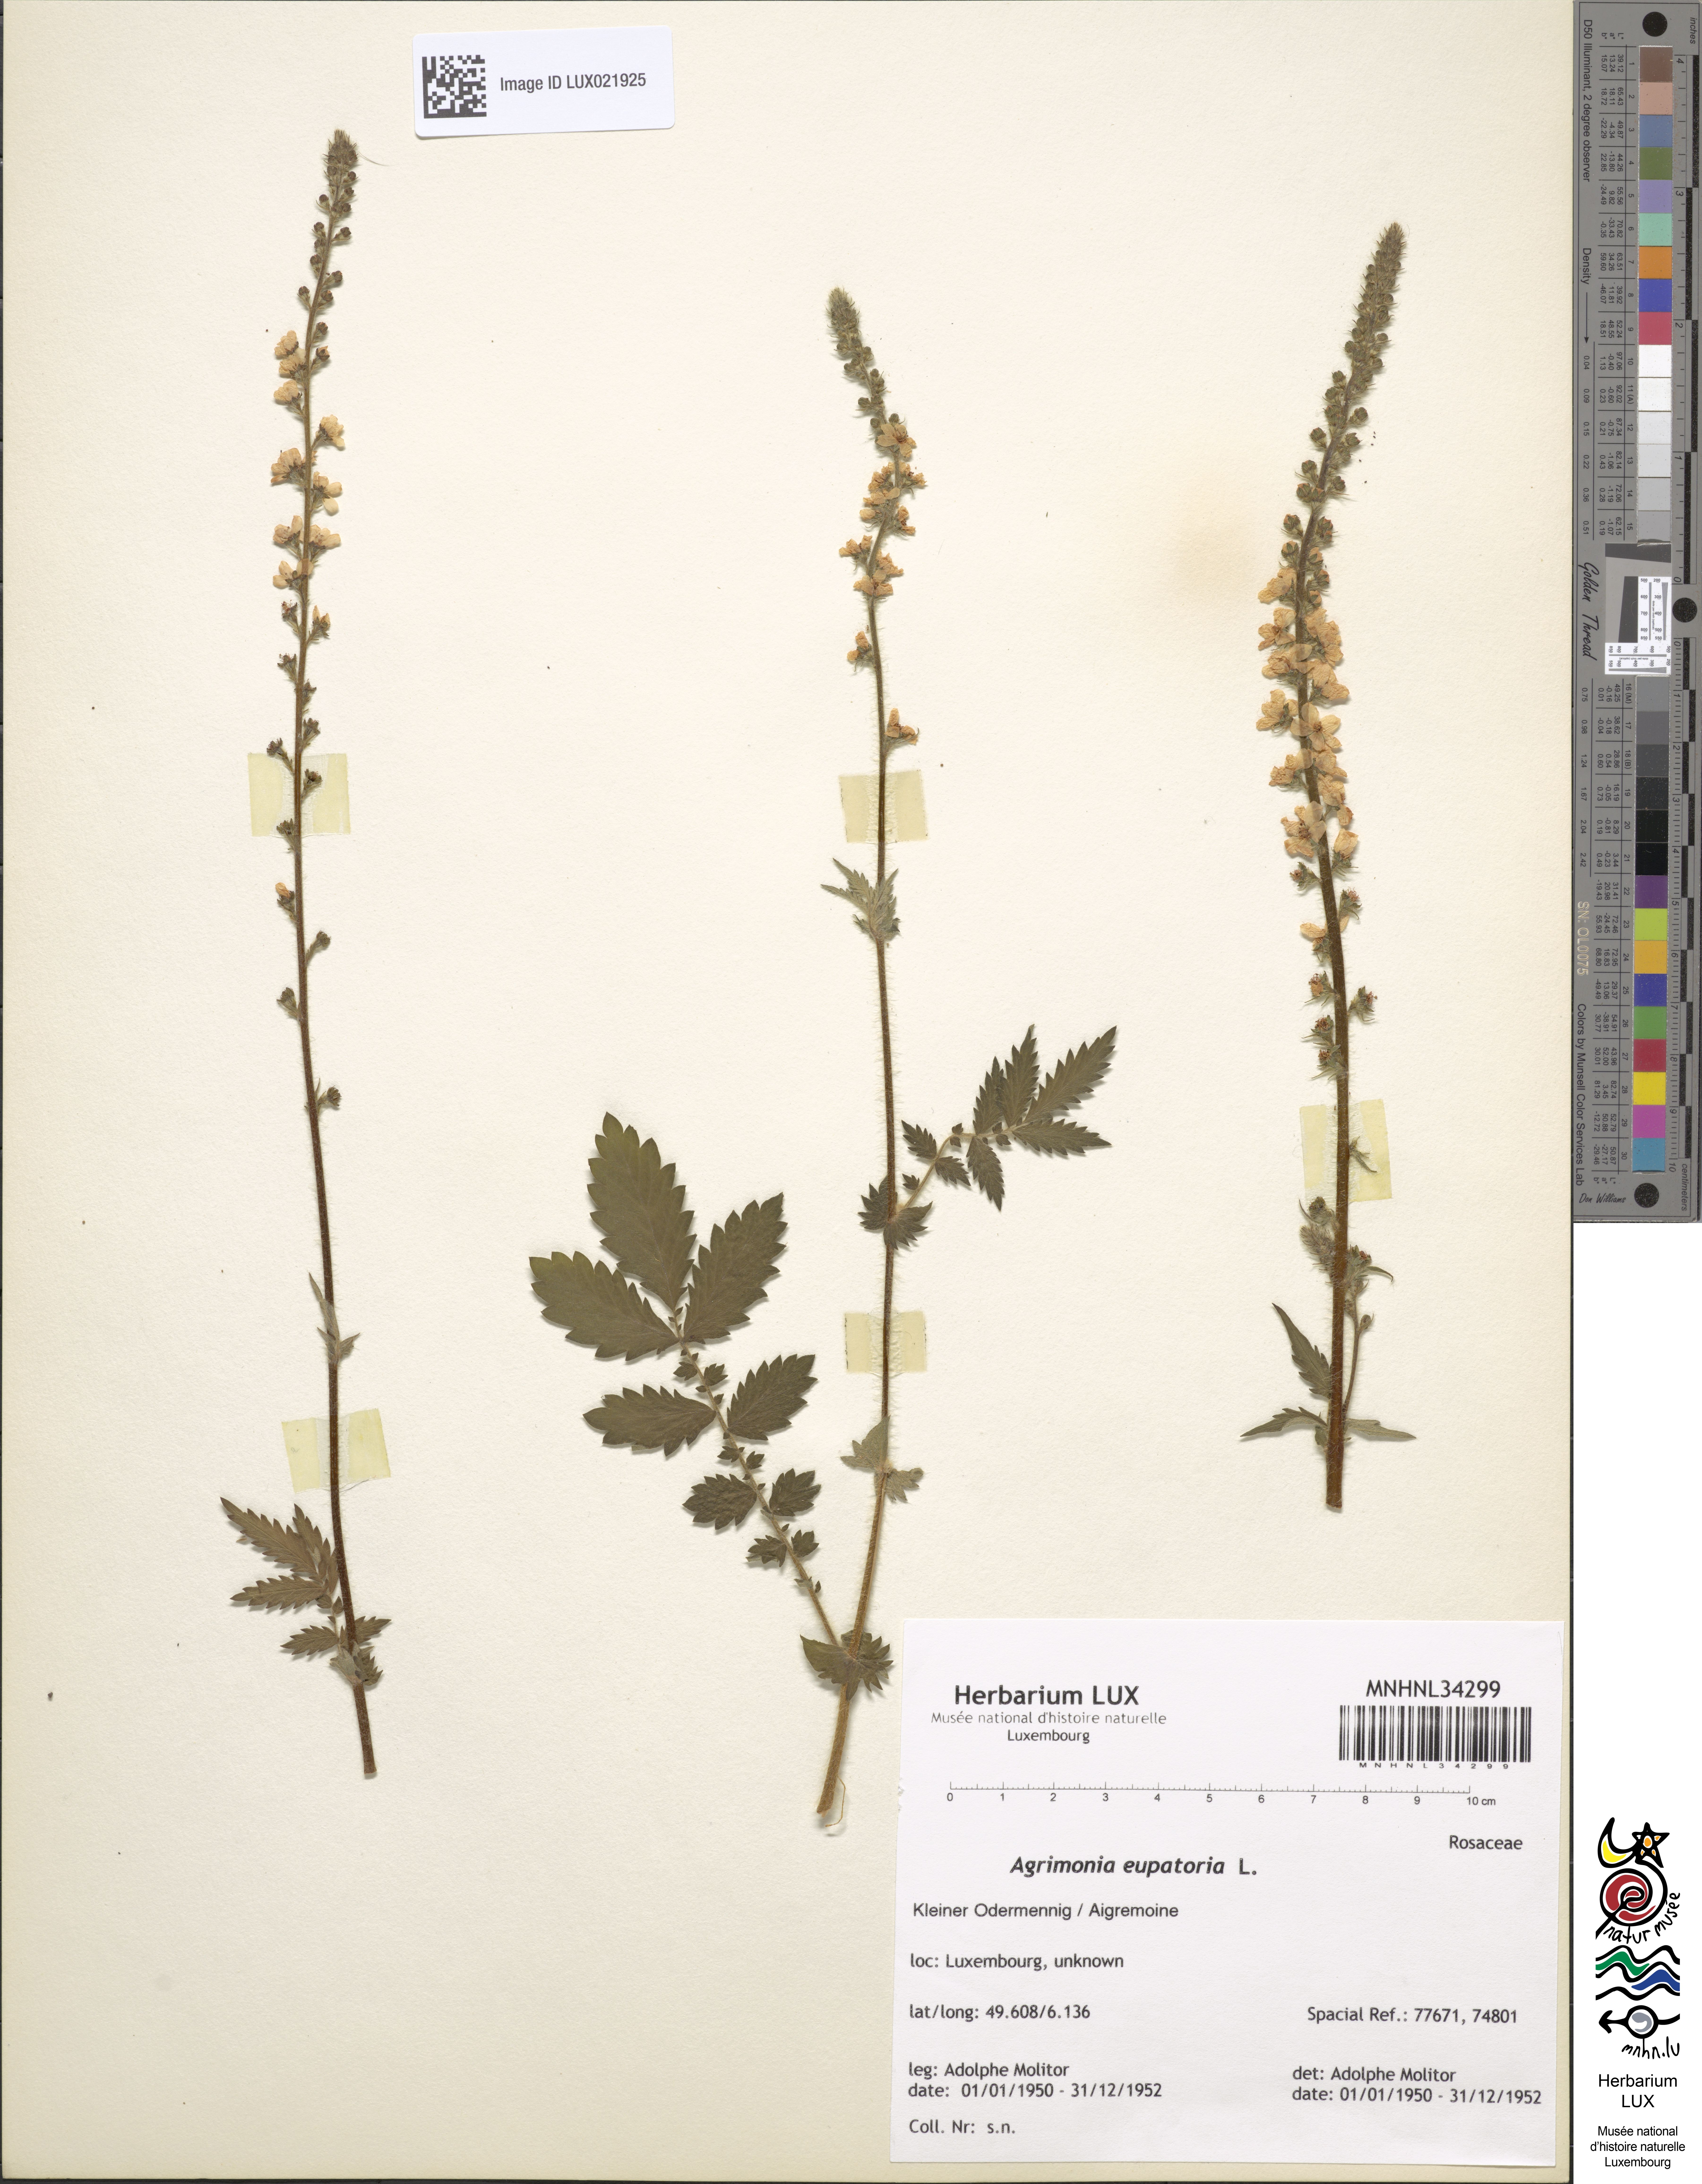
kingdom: Plantae
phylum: Tracheophyta
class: Magnoliopsida
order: Rosales
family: Rosaceae
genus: Agrimonia
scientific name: Agrimonia eupatoria
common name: Agrimony
